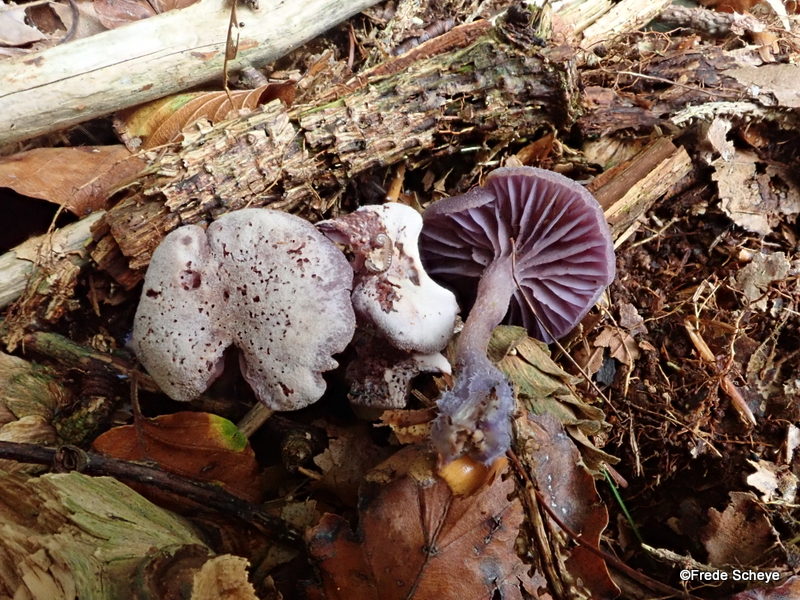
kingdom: Fungi
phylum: Basidiomycota
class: Agaricomycetes
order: Agaricales
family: Hydnangiaceae
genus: Laccaria
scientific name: Laccaria amethystina
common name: violet ametysthat
